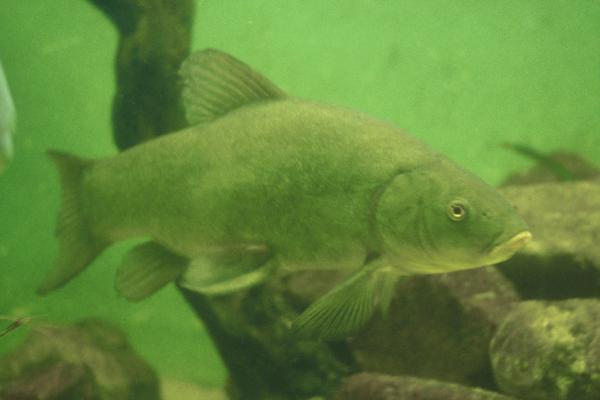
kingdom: Animalia
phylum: Chordata
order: Cypriniformes
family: Cyprinidae
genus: Tinca
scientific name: Tinca tinca
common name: Tench
